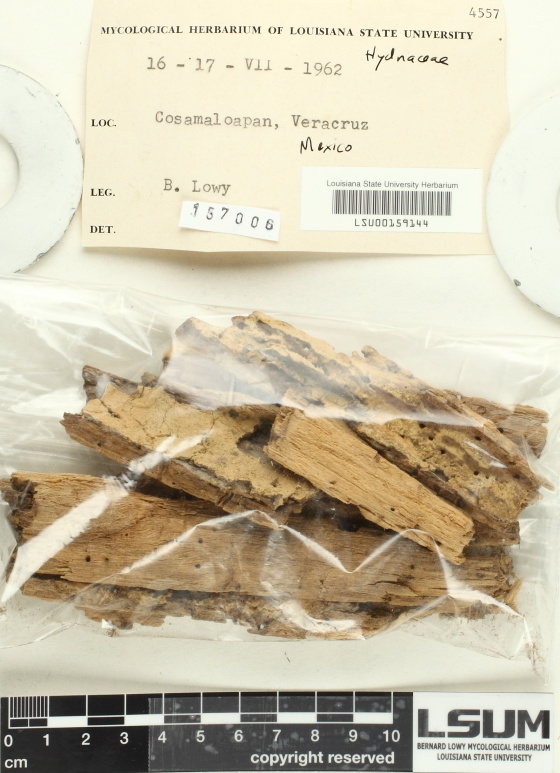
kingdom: Fungi
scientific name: Fungi
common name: Fungi
